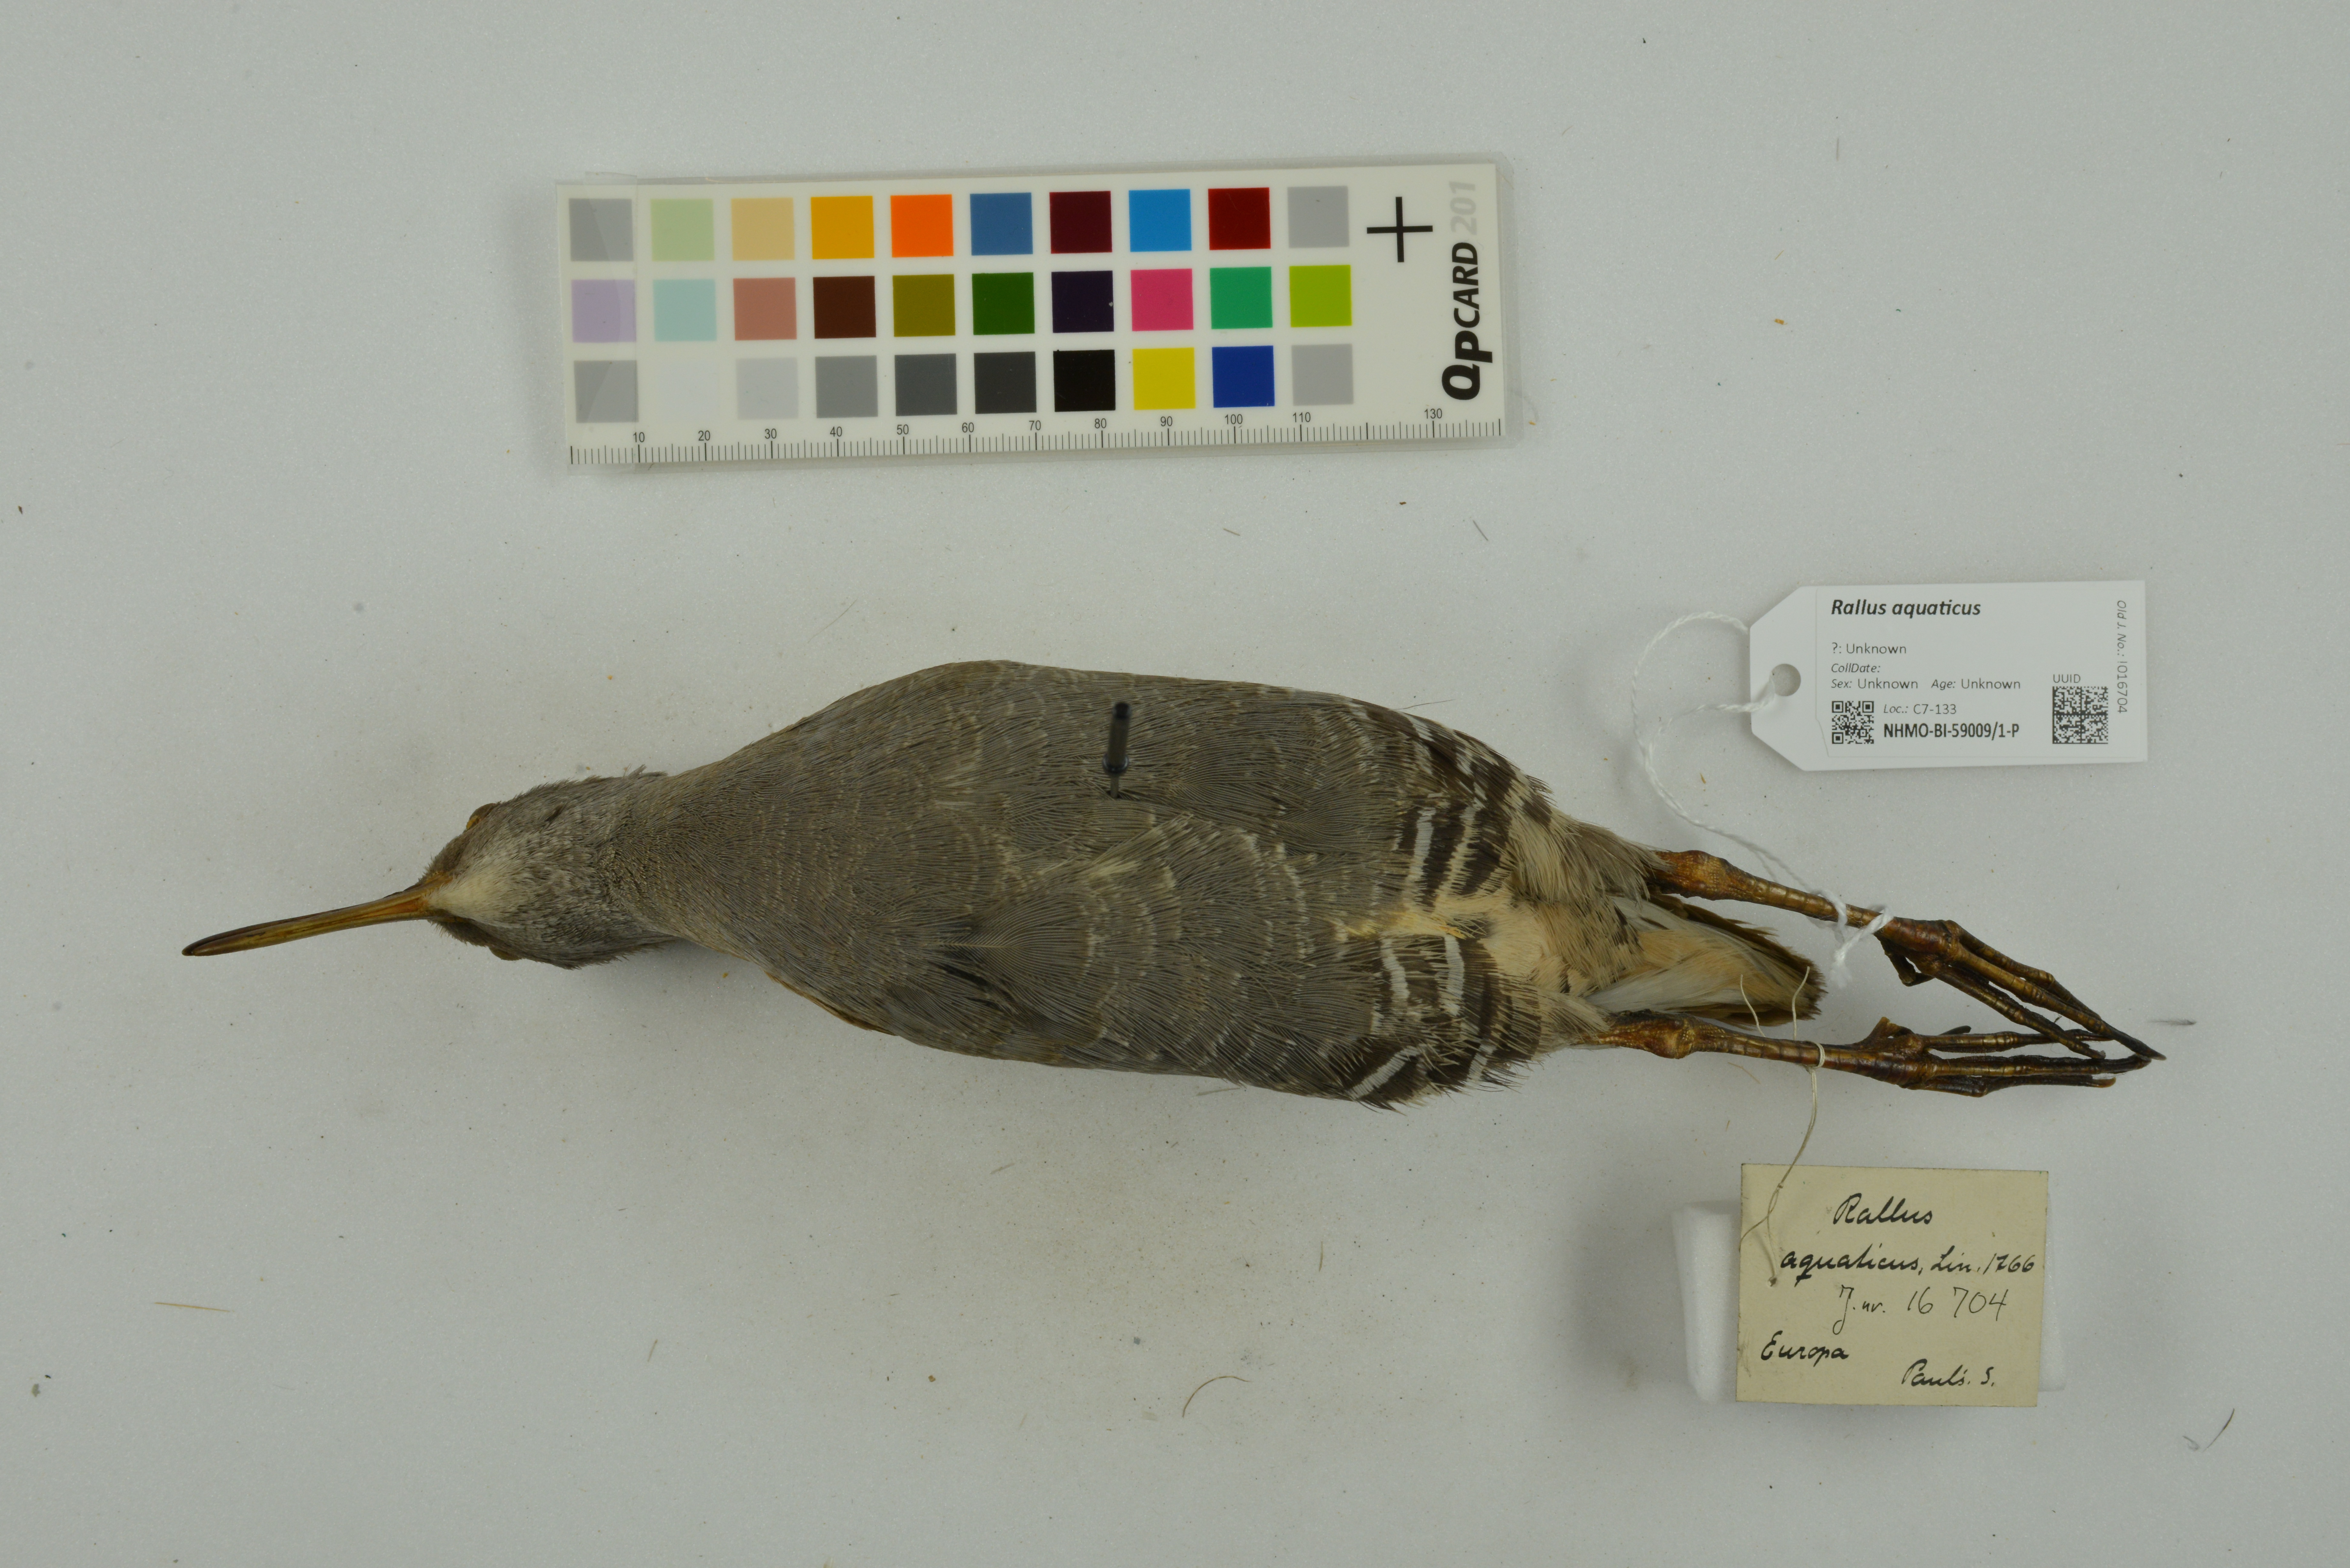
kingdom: Animalia
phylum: Chordata
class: Aves
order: Gruiformes
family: Rallidae
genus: Rallus
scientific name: Rallus aquaticus
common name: Water rail
